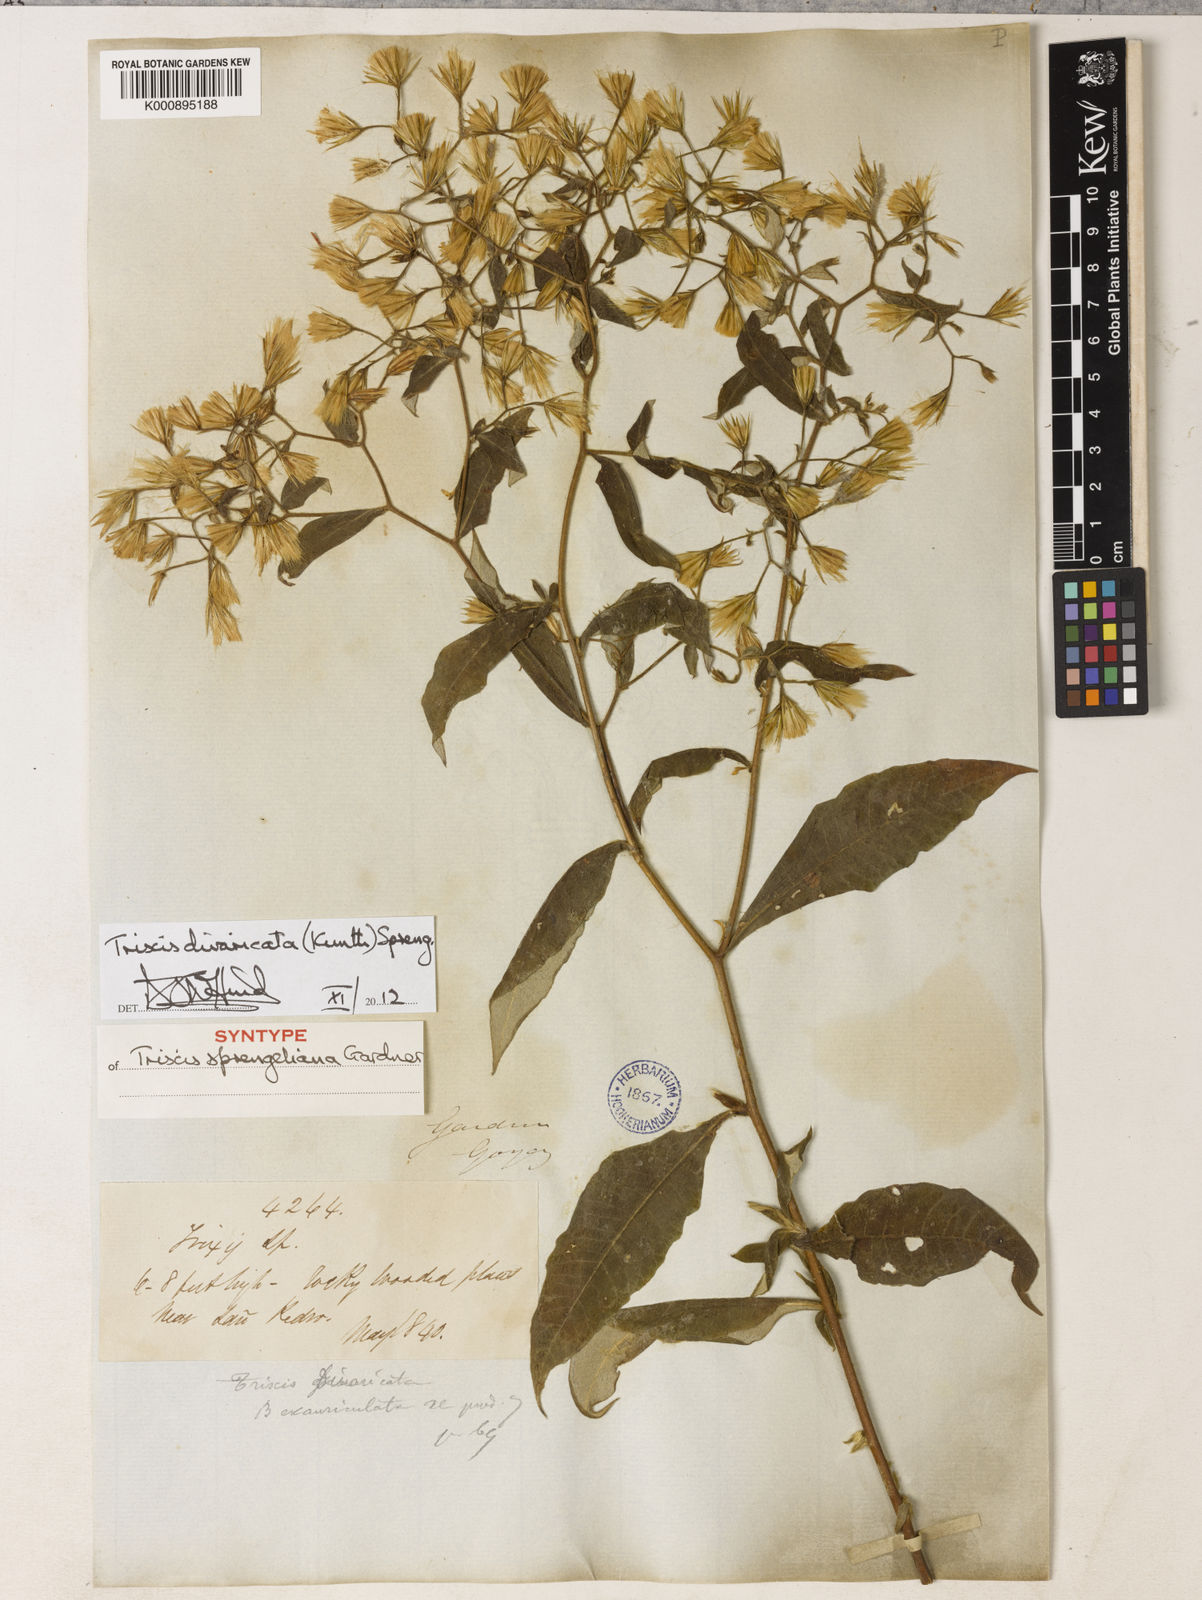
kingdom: Plantae
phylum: Tracheophyta
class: Magnoliopsida
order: Asterales
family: Asteraceae
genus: Trixis
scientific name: Trixis divaricata
